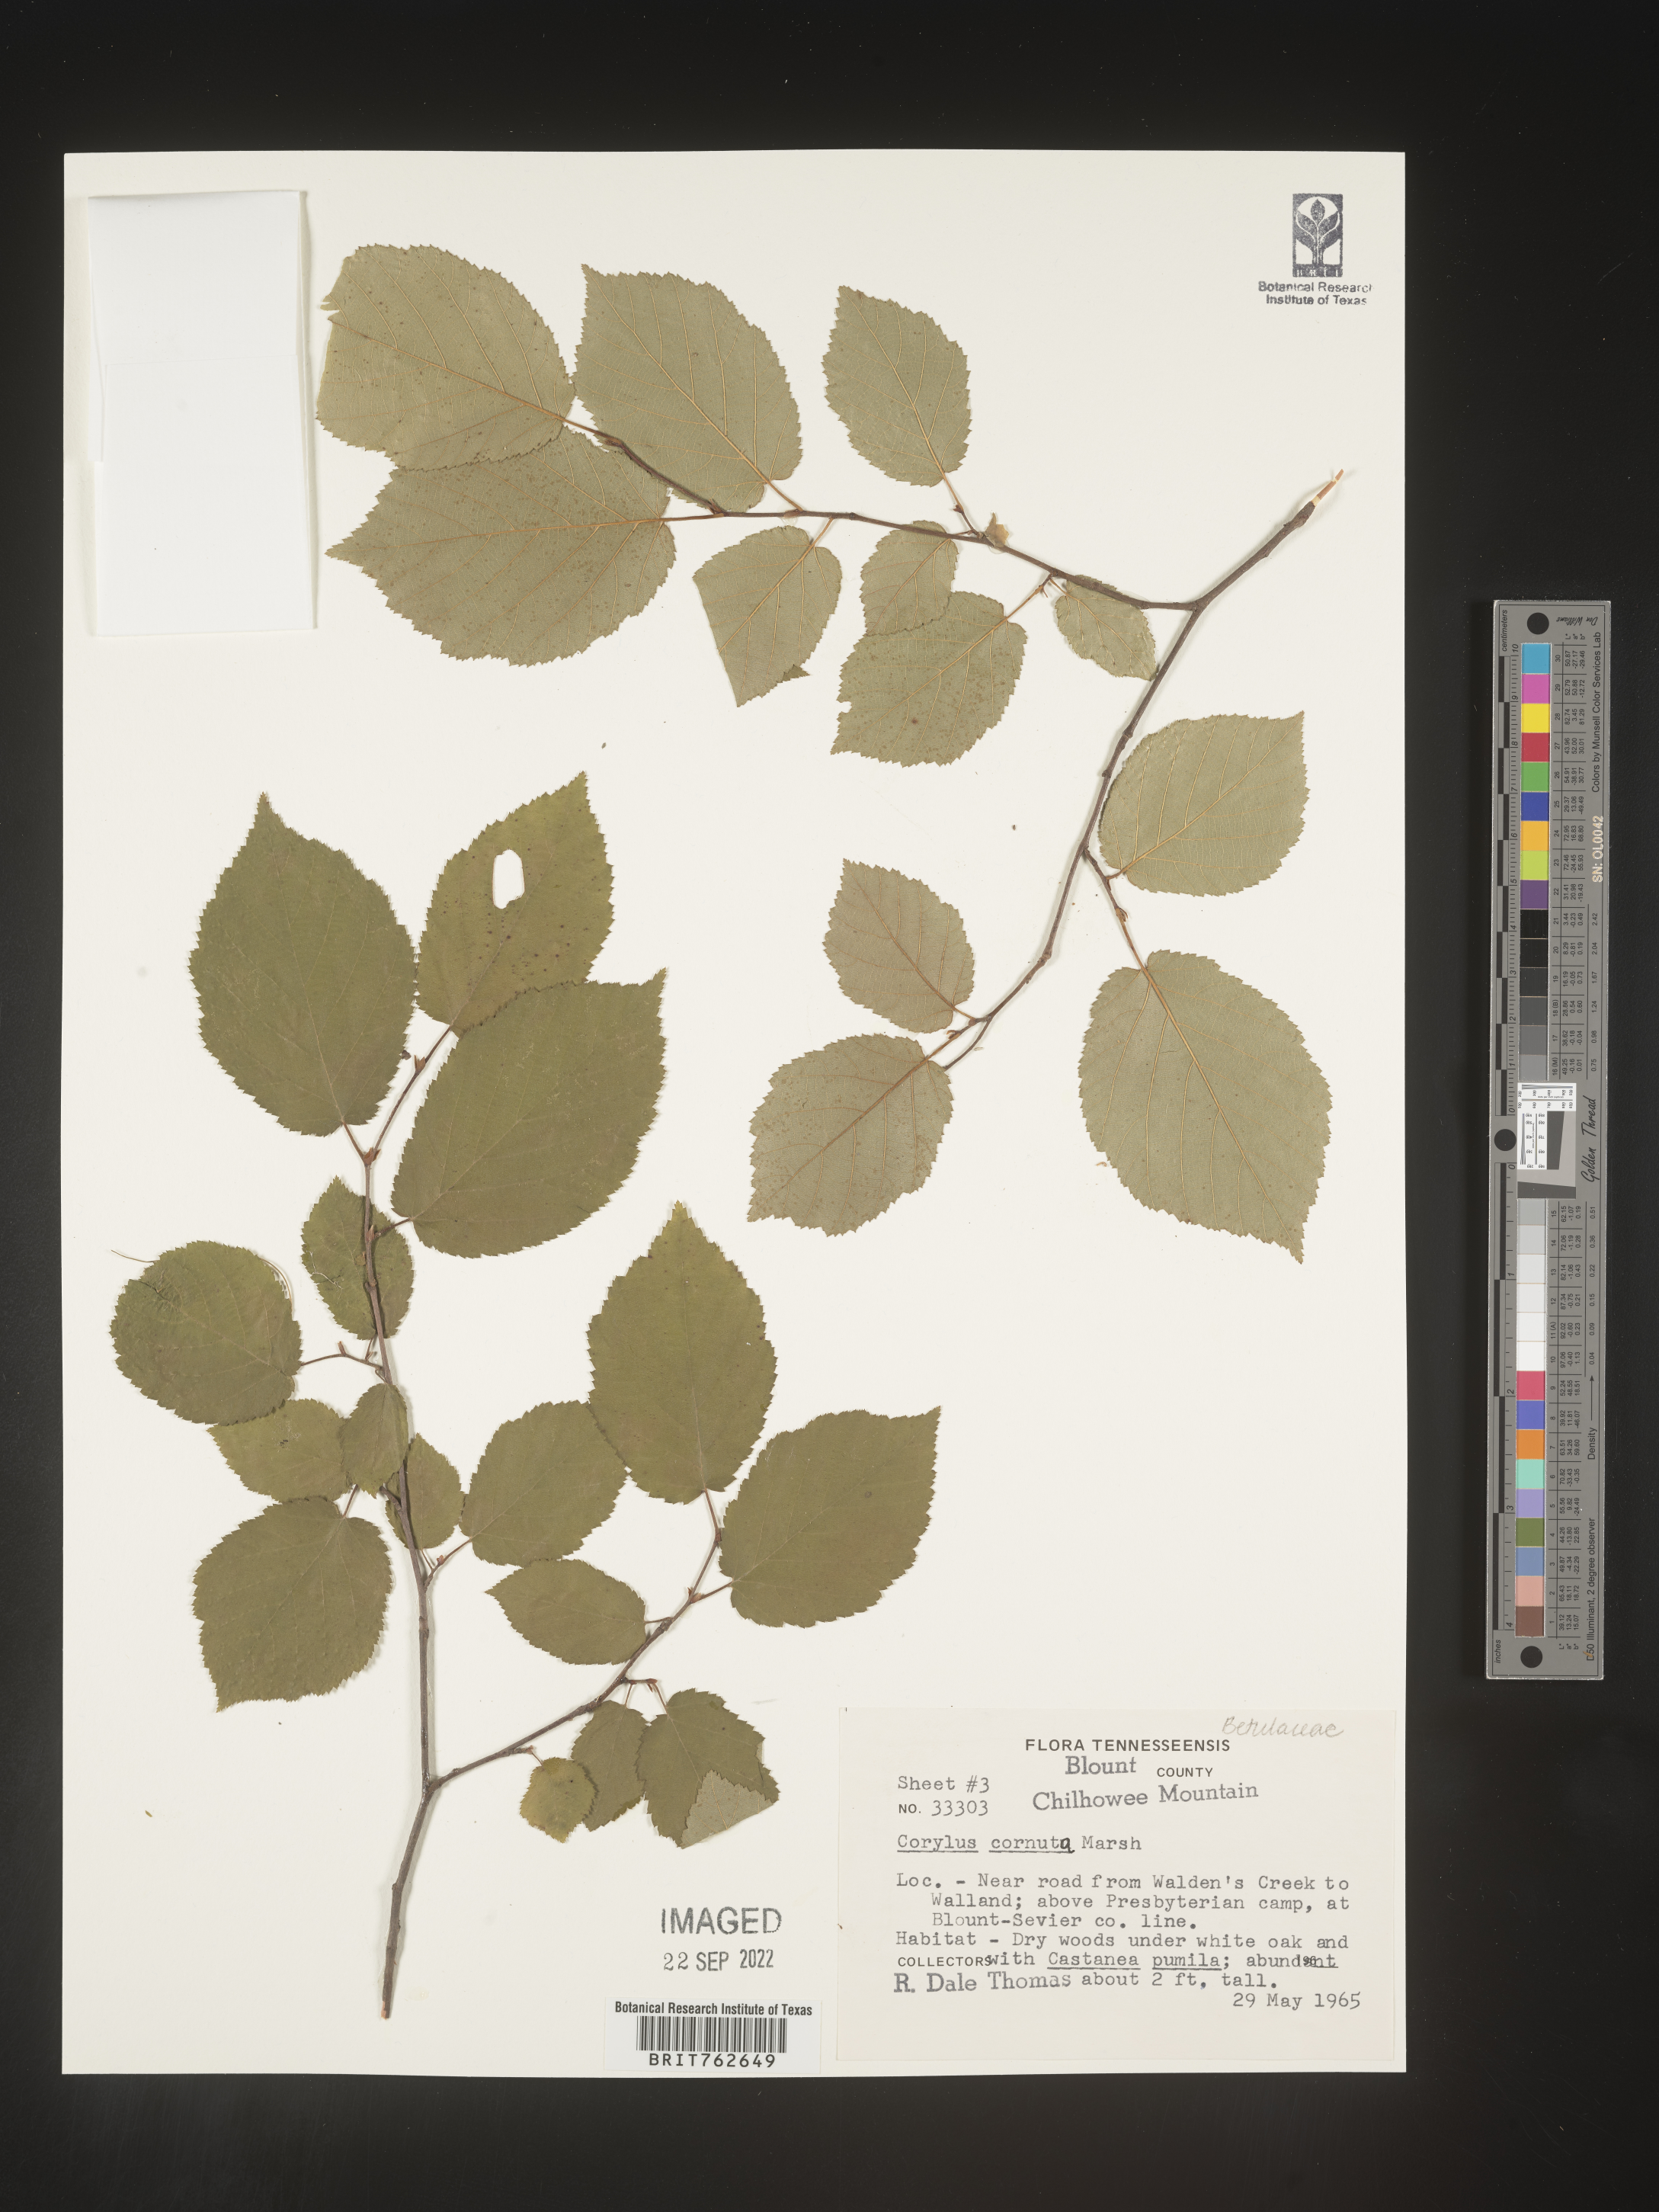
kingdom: Plantae
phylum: Tracheophyta
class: Magnoliopsida
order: Fagales
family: Betulaceae
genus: Corylus
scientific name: Corylus cornuta
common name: Beaked hazel
